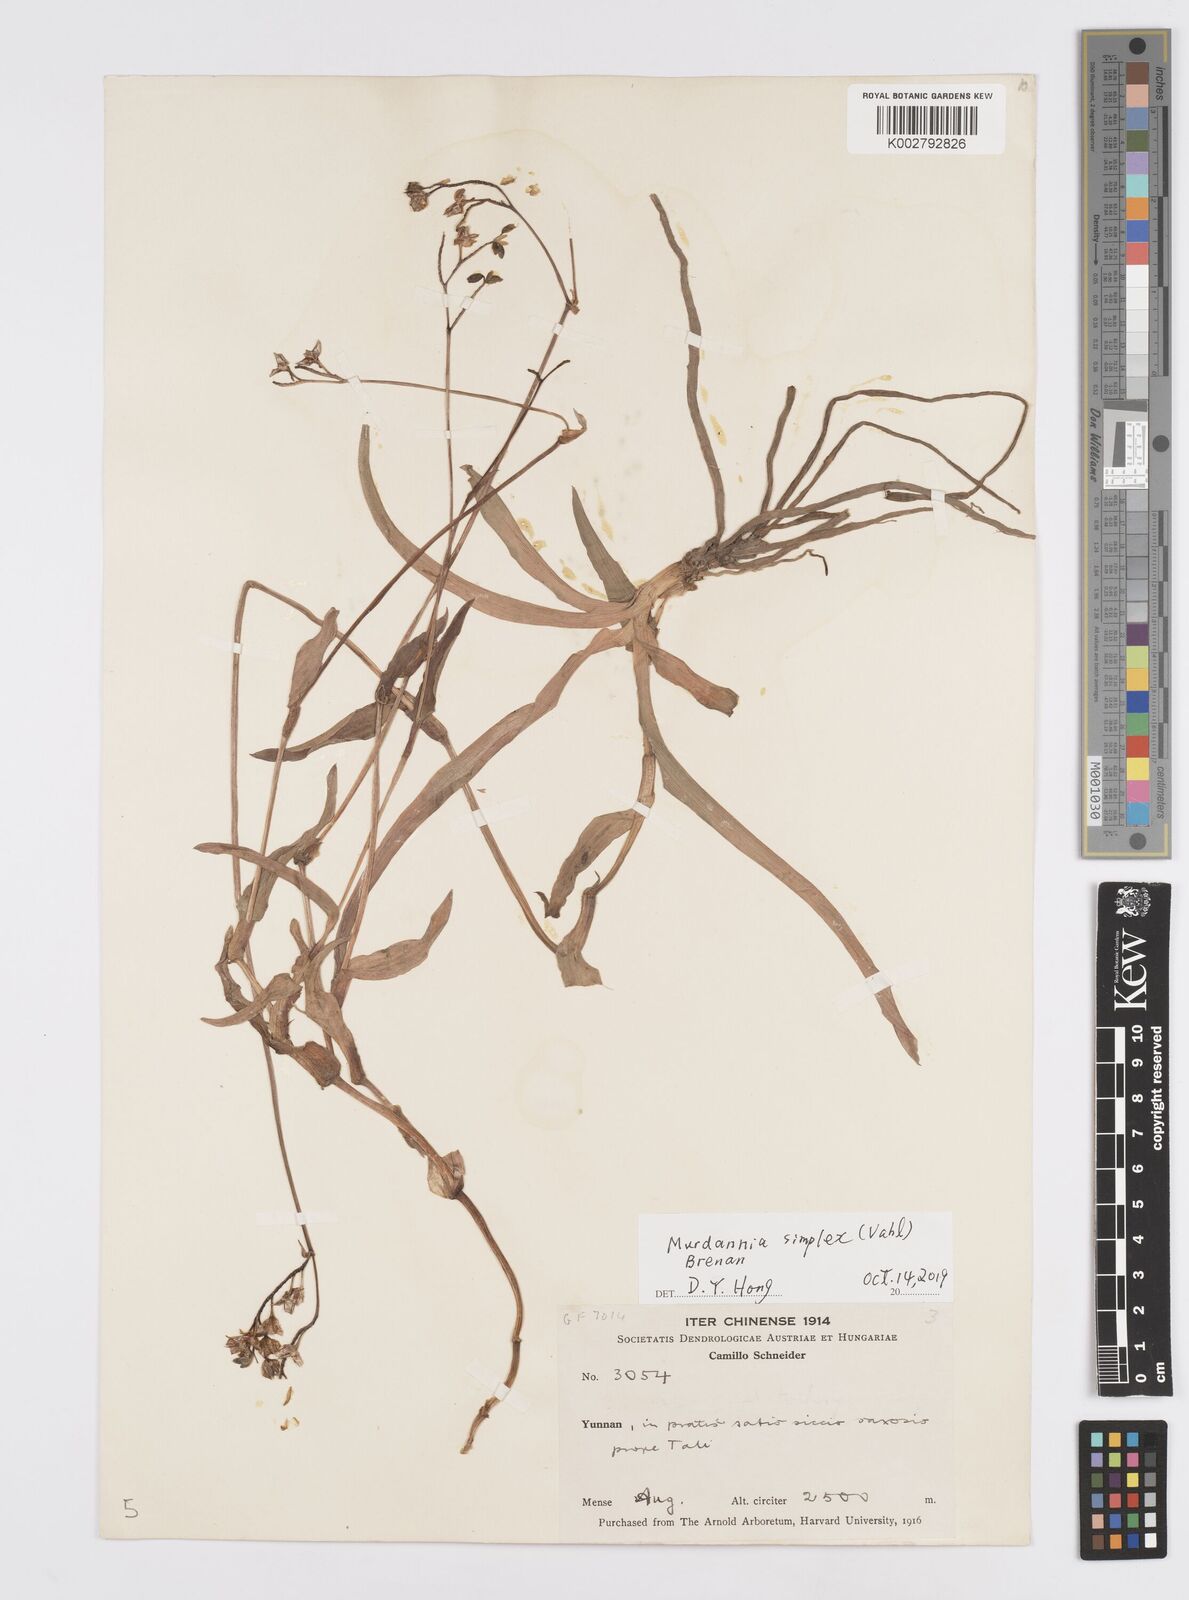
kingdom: Plantae
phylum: Tracheophyta
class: Liliopsida
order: Commelinales
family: Commelinaceae
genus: Murdannia
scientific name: Murdannia
